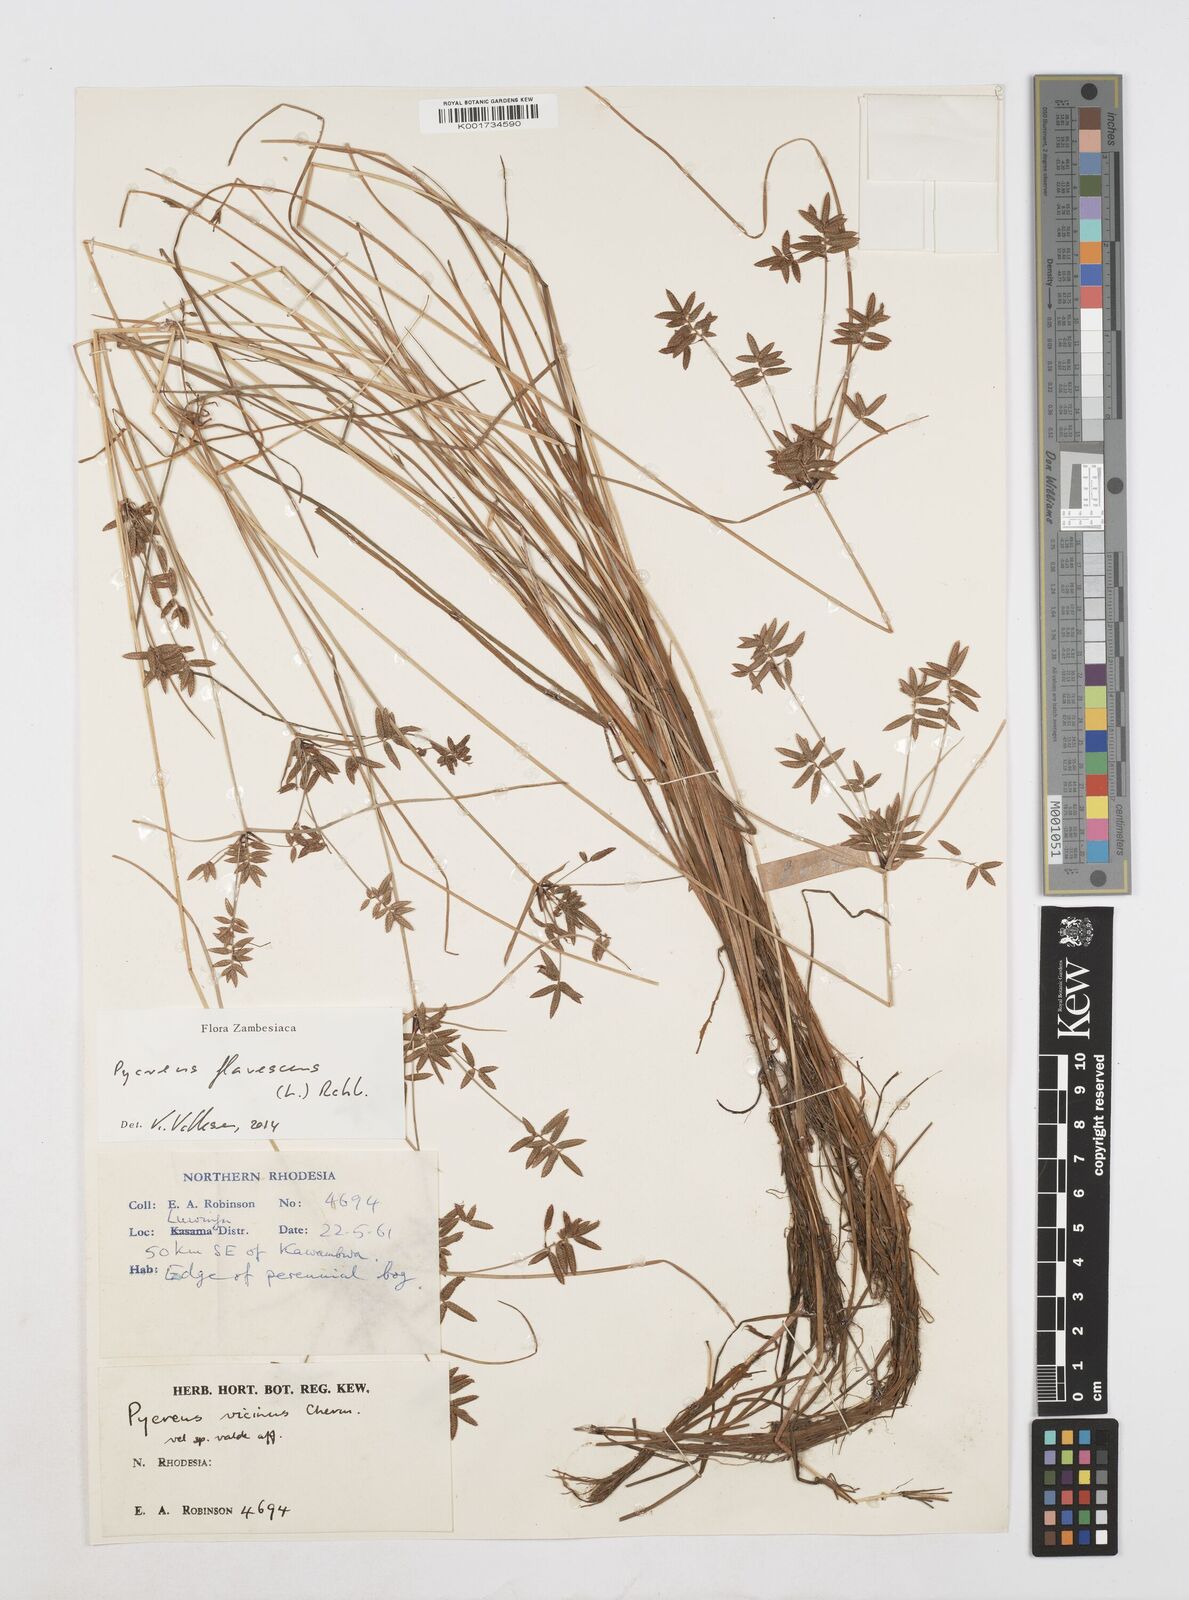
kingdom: Plantae
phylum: Tracheophyta
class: Liliopsida
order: Poales
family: Cyperaceae
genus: Cyperus
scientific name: Cyperus flavescens
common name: Yellow galingale
